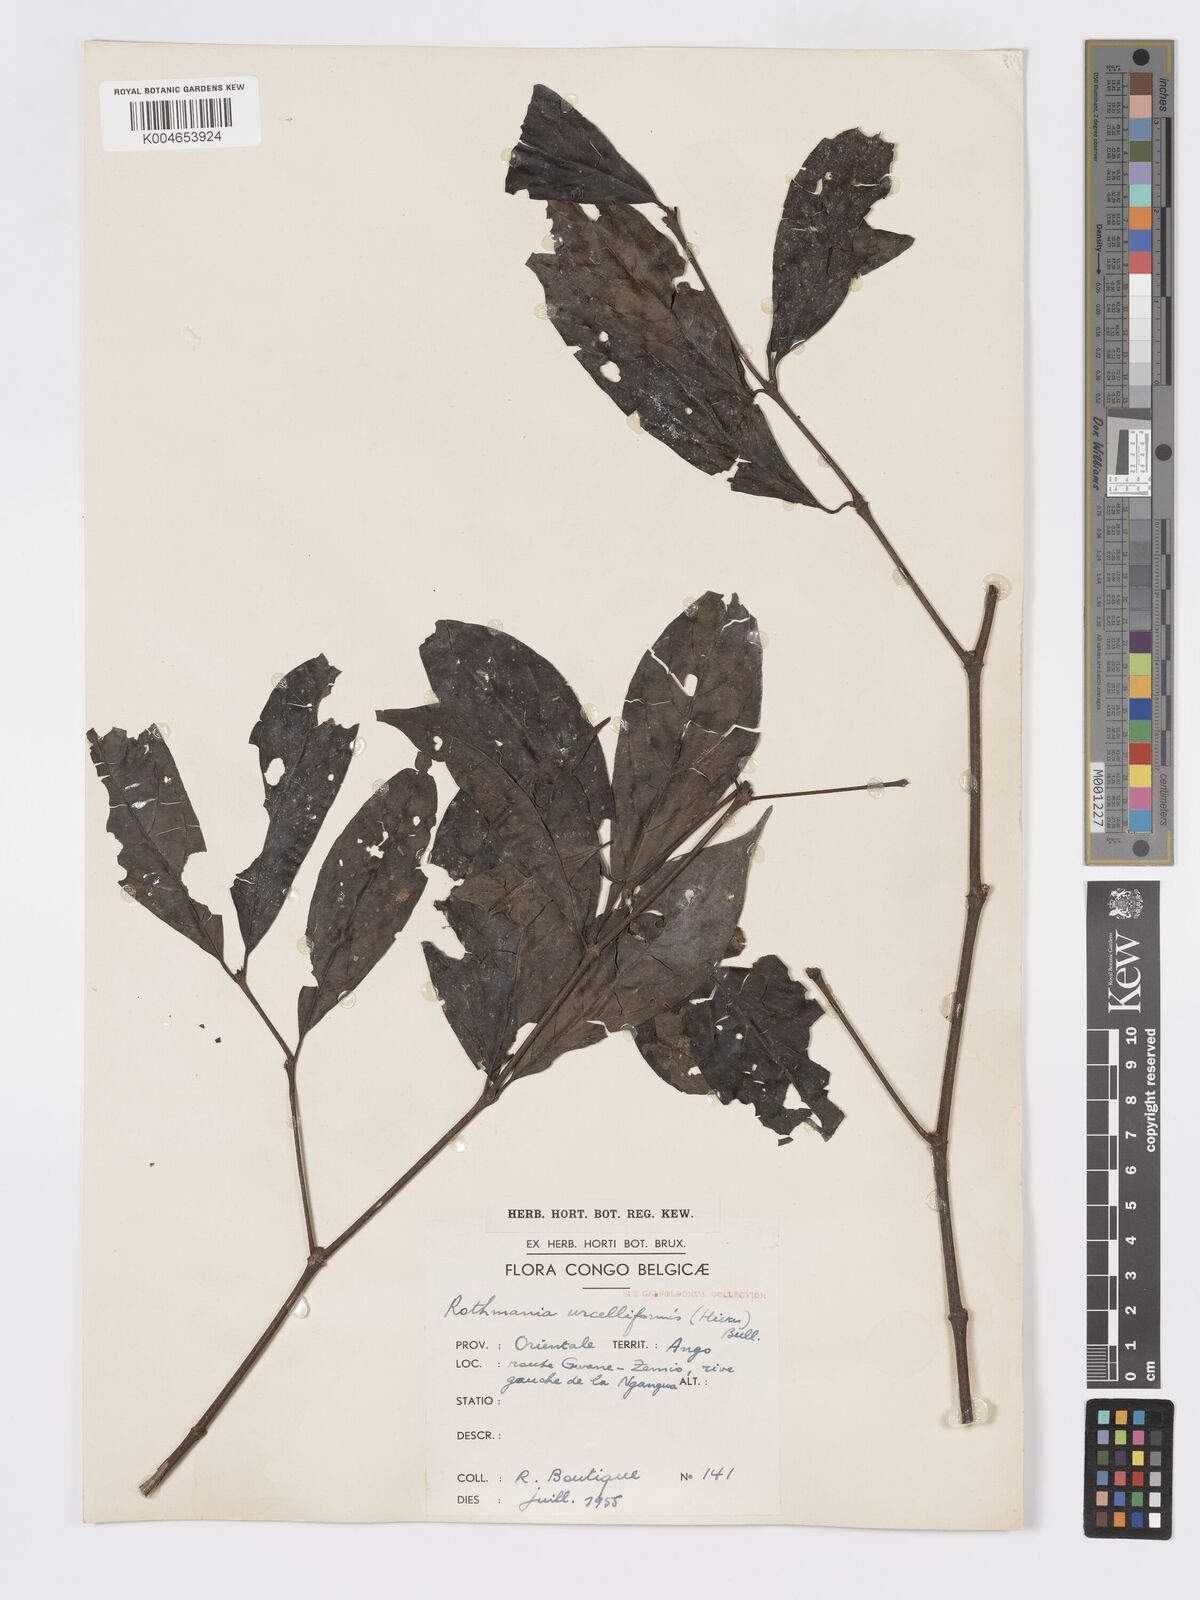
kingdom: Plantae
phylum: Tracheophyta
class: Magnoliopsida
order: Gentianales
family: Rubiaceae
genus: Rothmannia
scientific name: Rothmannia urcelliformis
